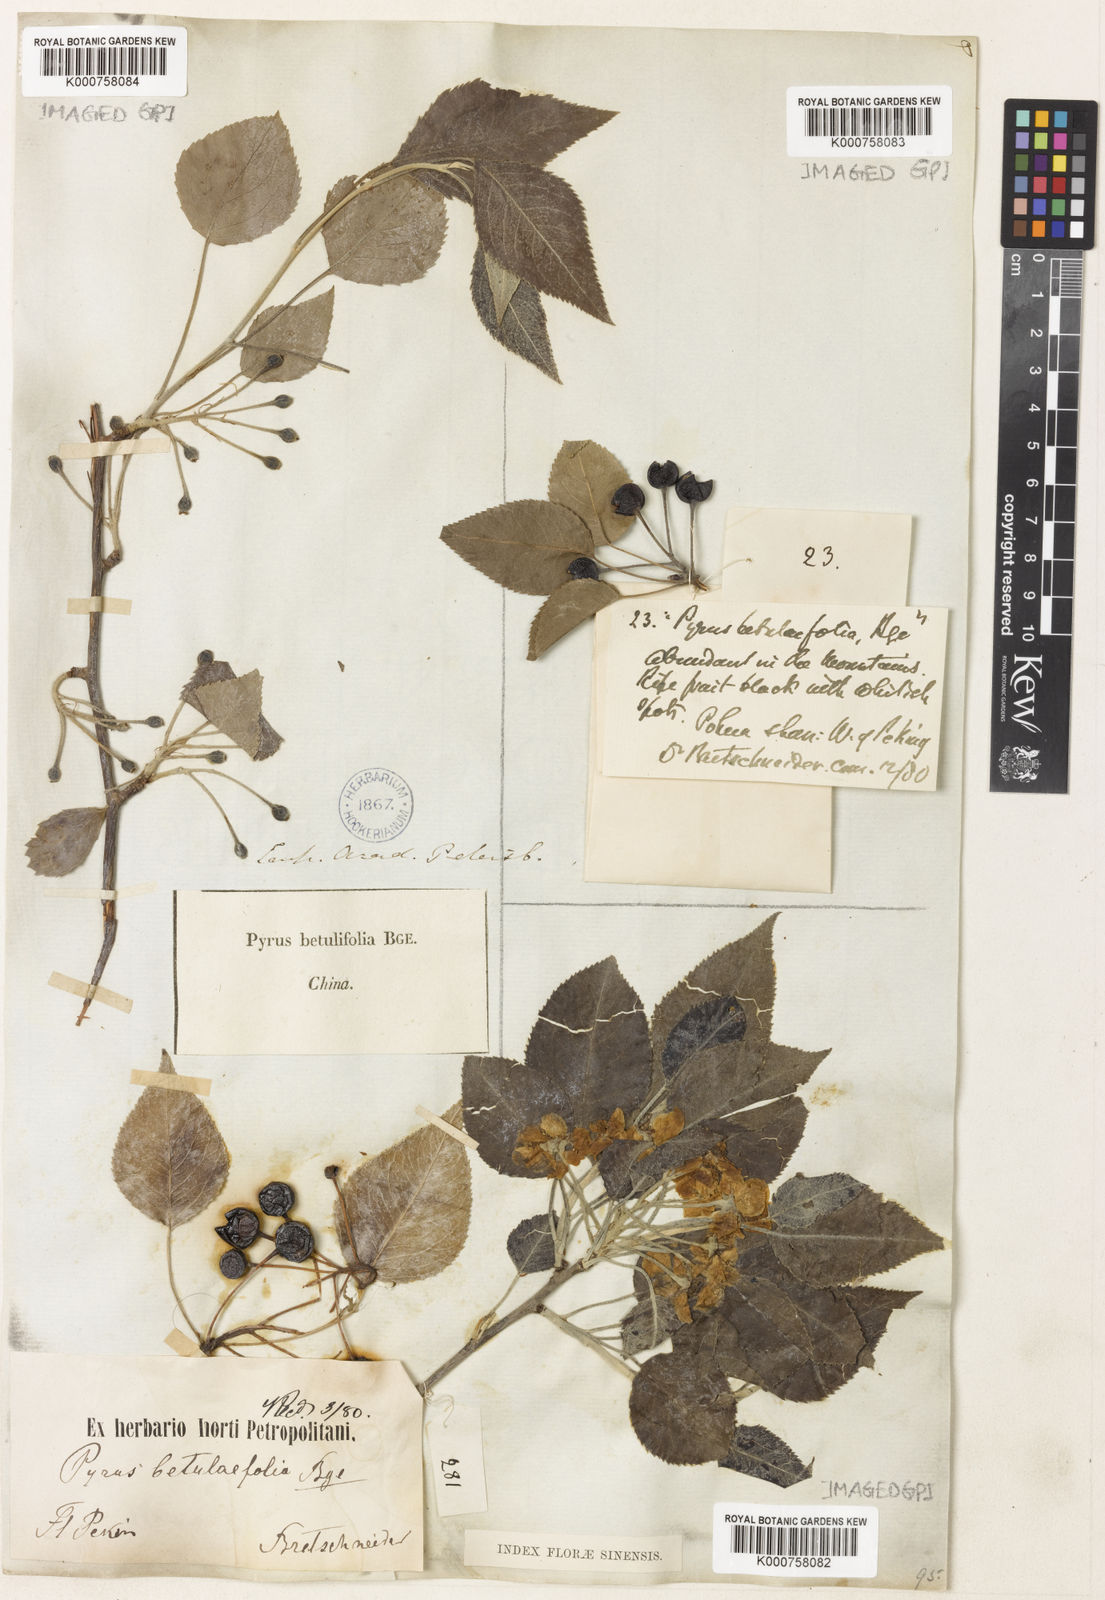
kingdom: Plantae
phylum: Tracheophyta
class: Magnoliopsida
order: Rosales
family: Rosaceae
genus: Pyrus
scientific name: Pyrus betulifolia
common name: Birch-leaf pear
